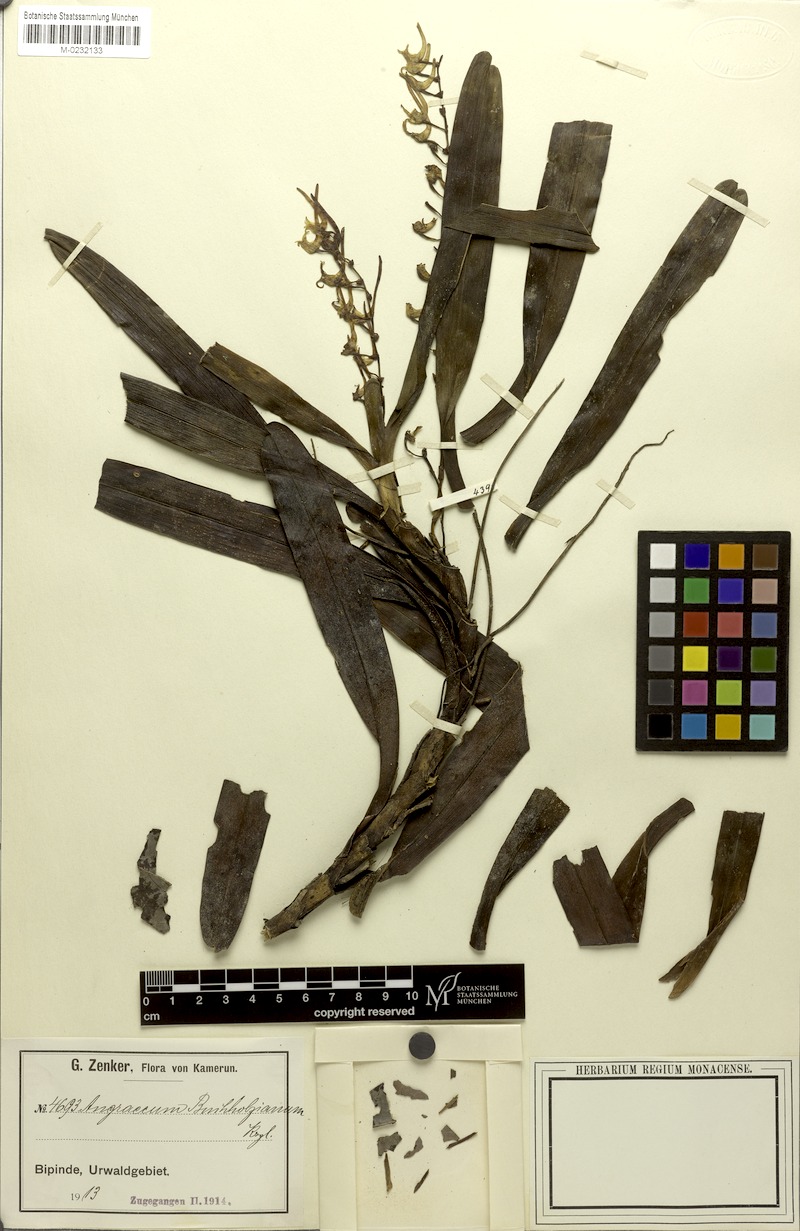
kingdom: Plantae
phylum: Tracheophyta
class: Liliopsida
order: Asparagales
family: Orchidaceae
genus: Cyrtorchis
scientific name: Cyrtorchis ringens
